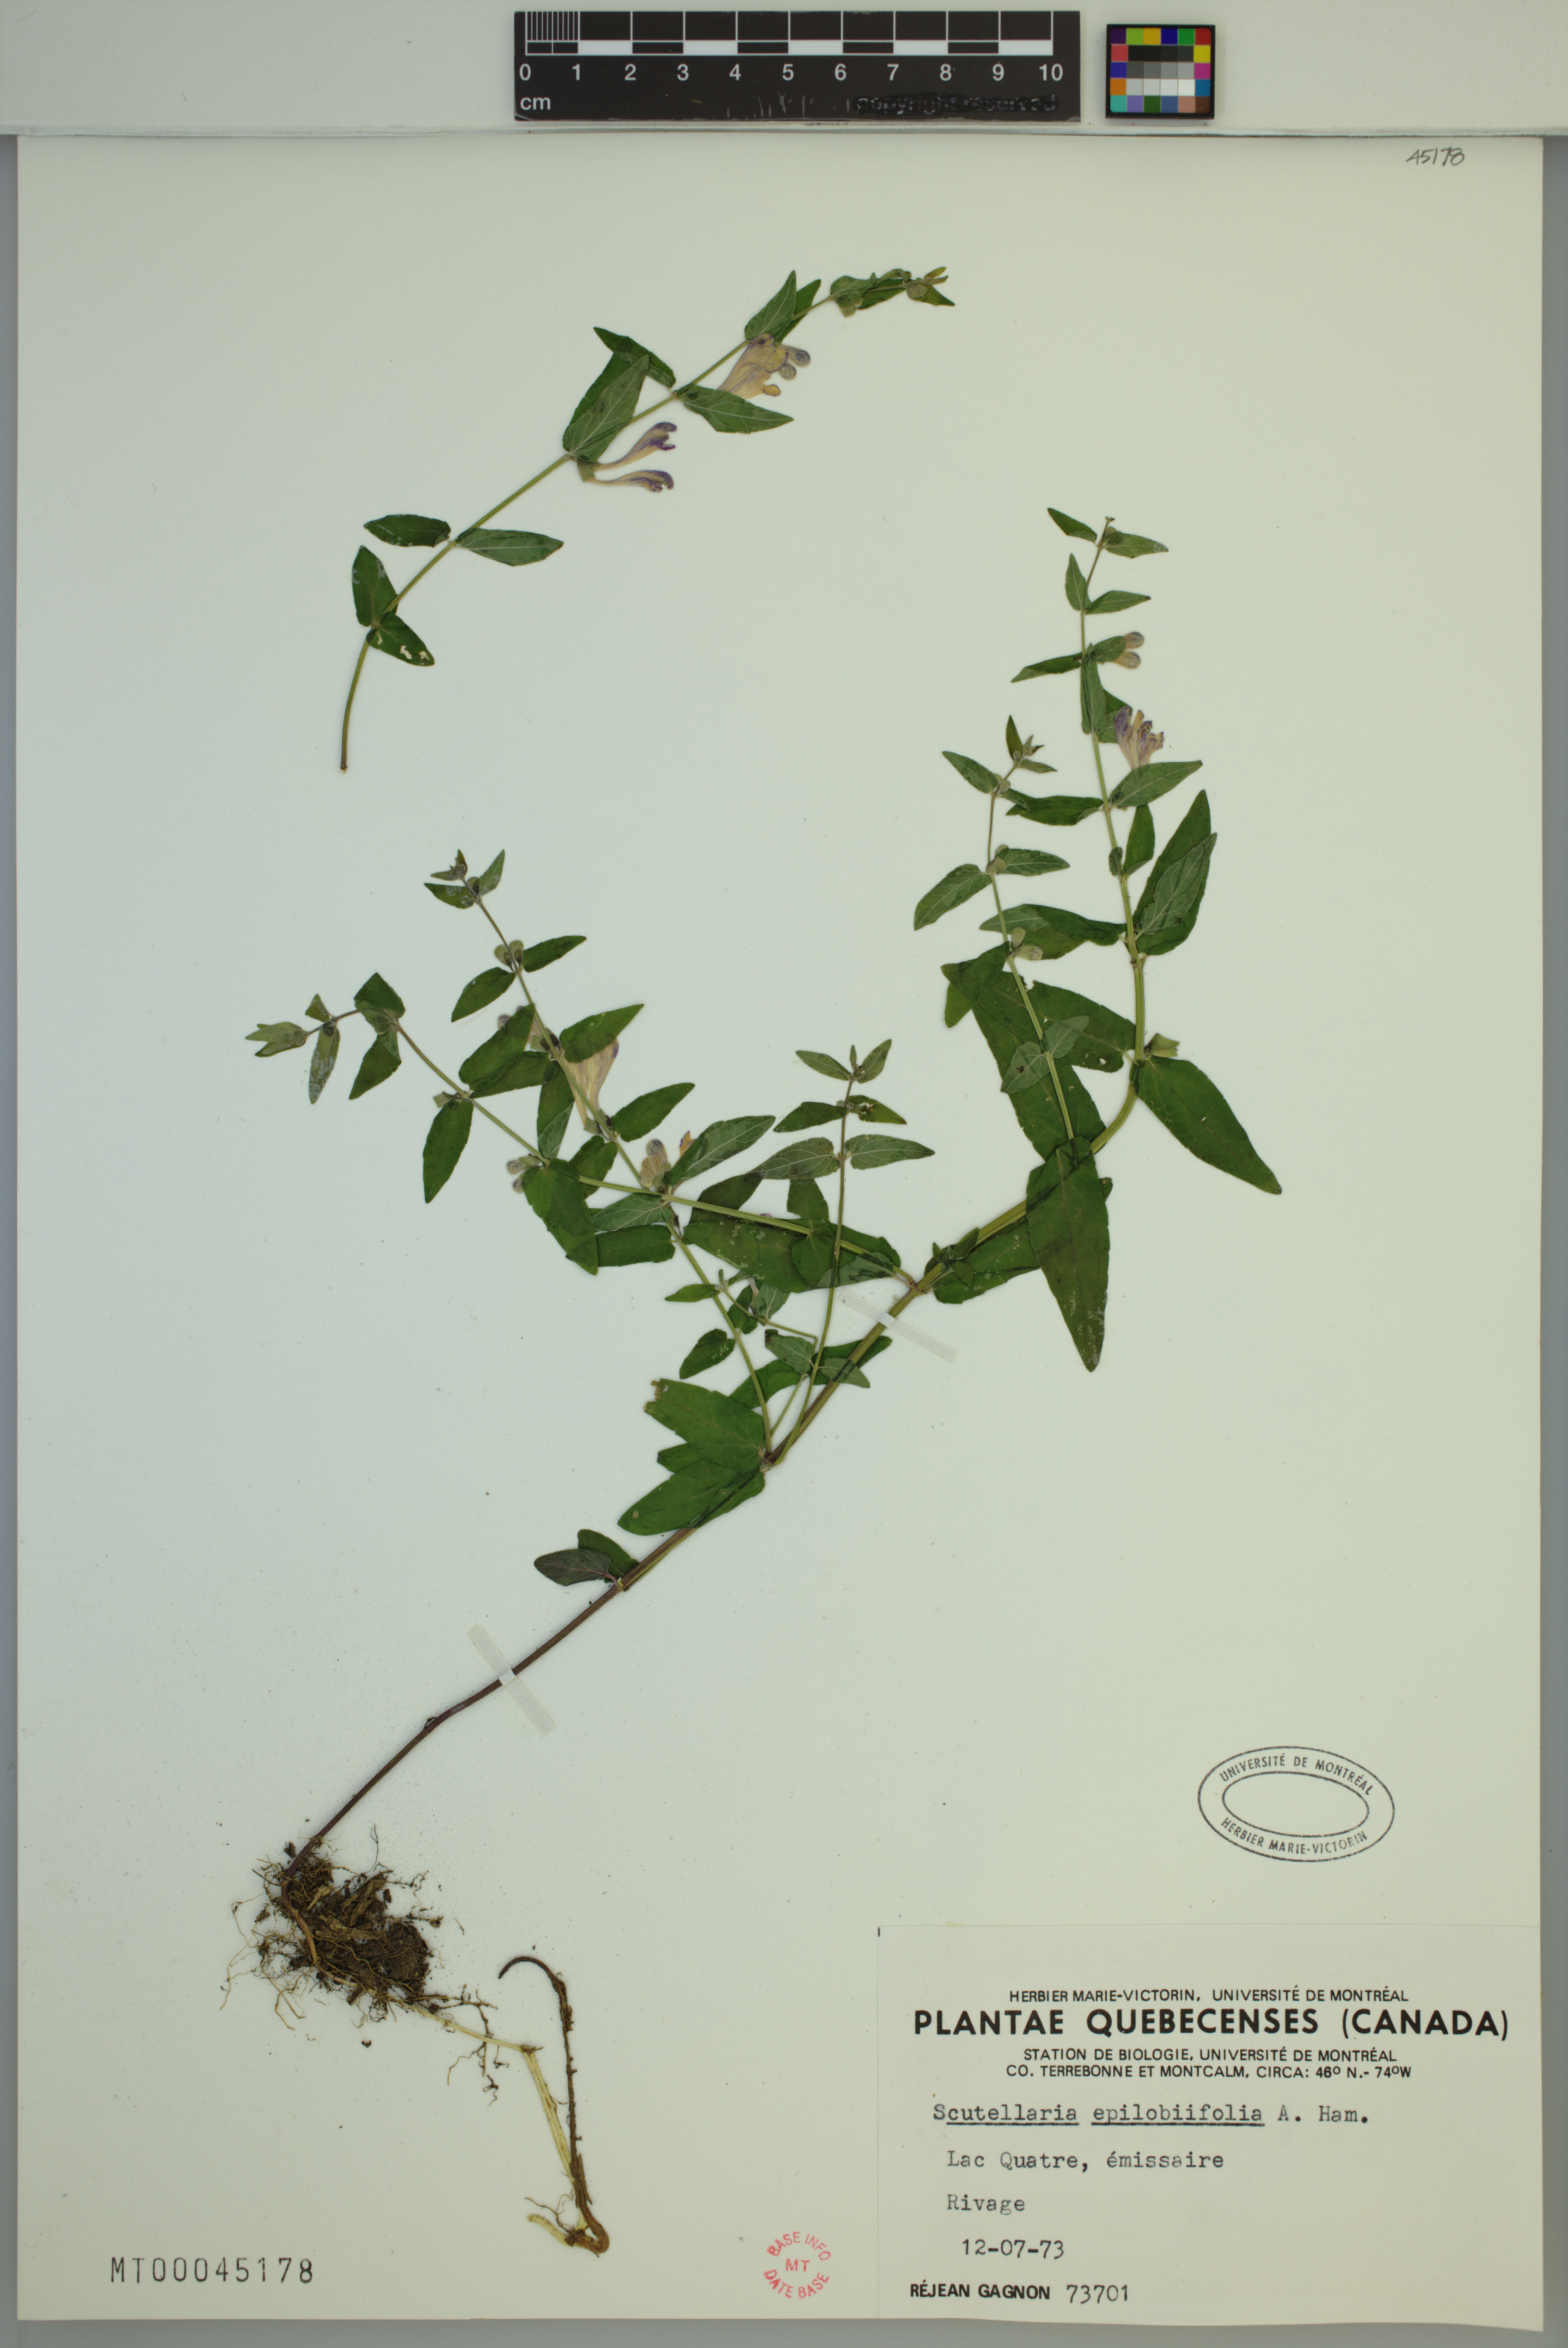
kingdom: Plantae
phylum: Tracheophyta
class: Magnoliopsida
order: Lamiales
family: Lamiaceae
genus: Scutellaria
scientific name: Scutellaria nicholsonii
